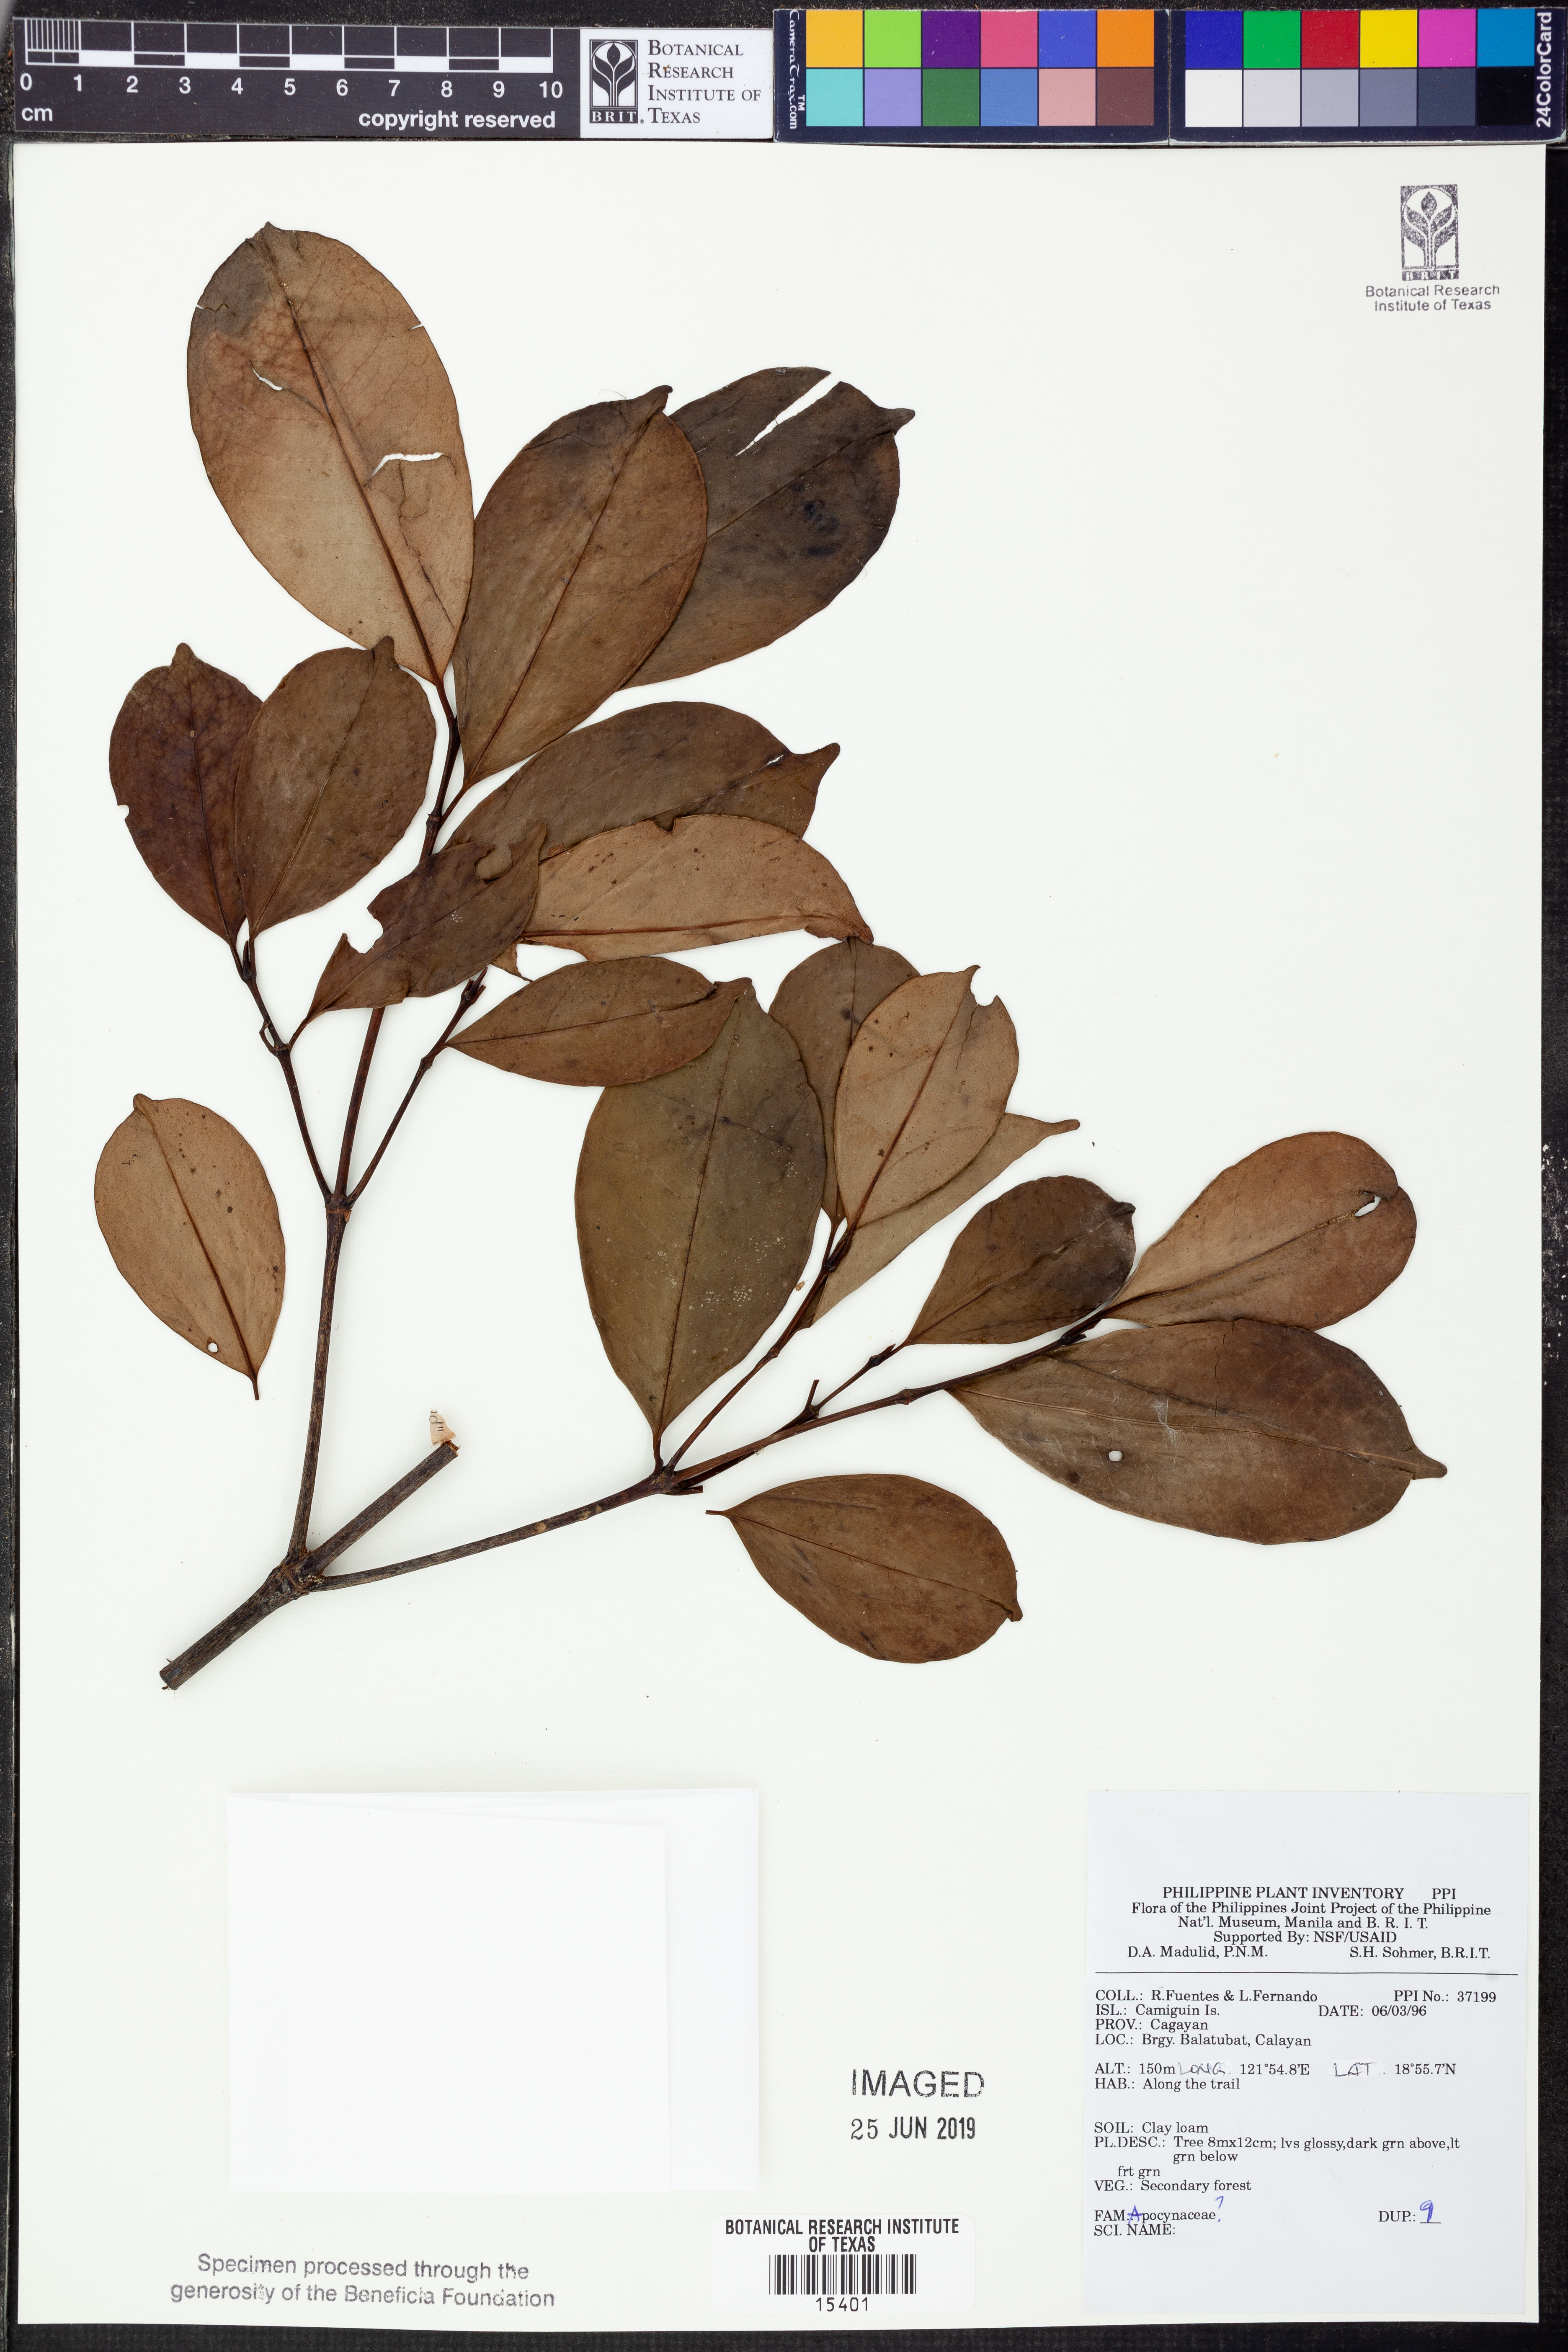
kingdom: Plantae
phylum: Tracheophyta
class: Magnoliopsida
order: Gentianales
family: Apocynaceae
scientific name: Apocynaceae
